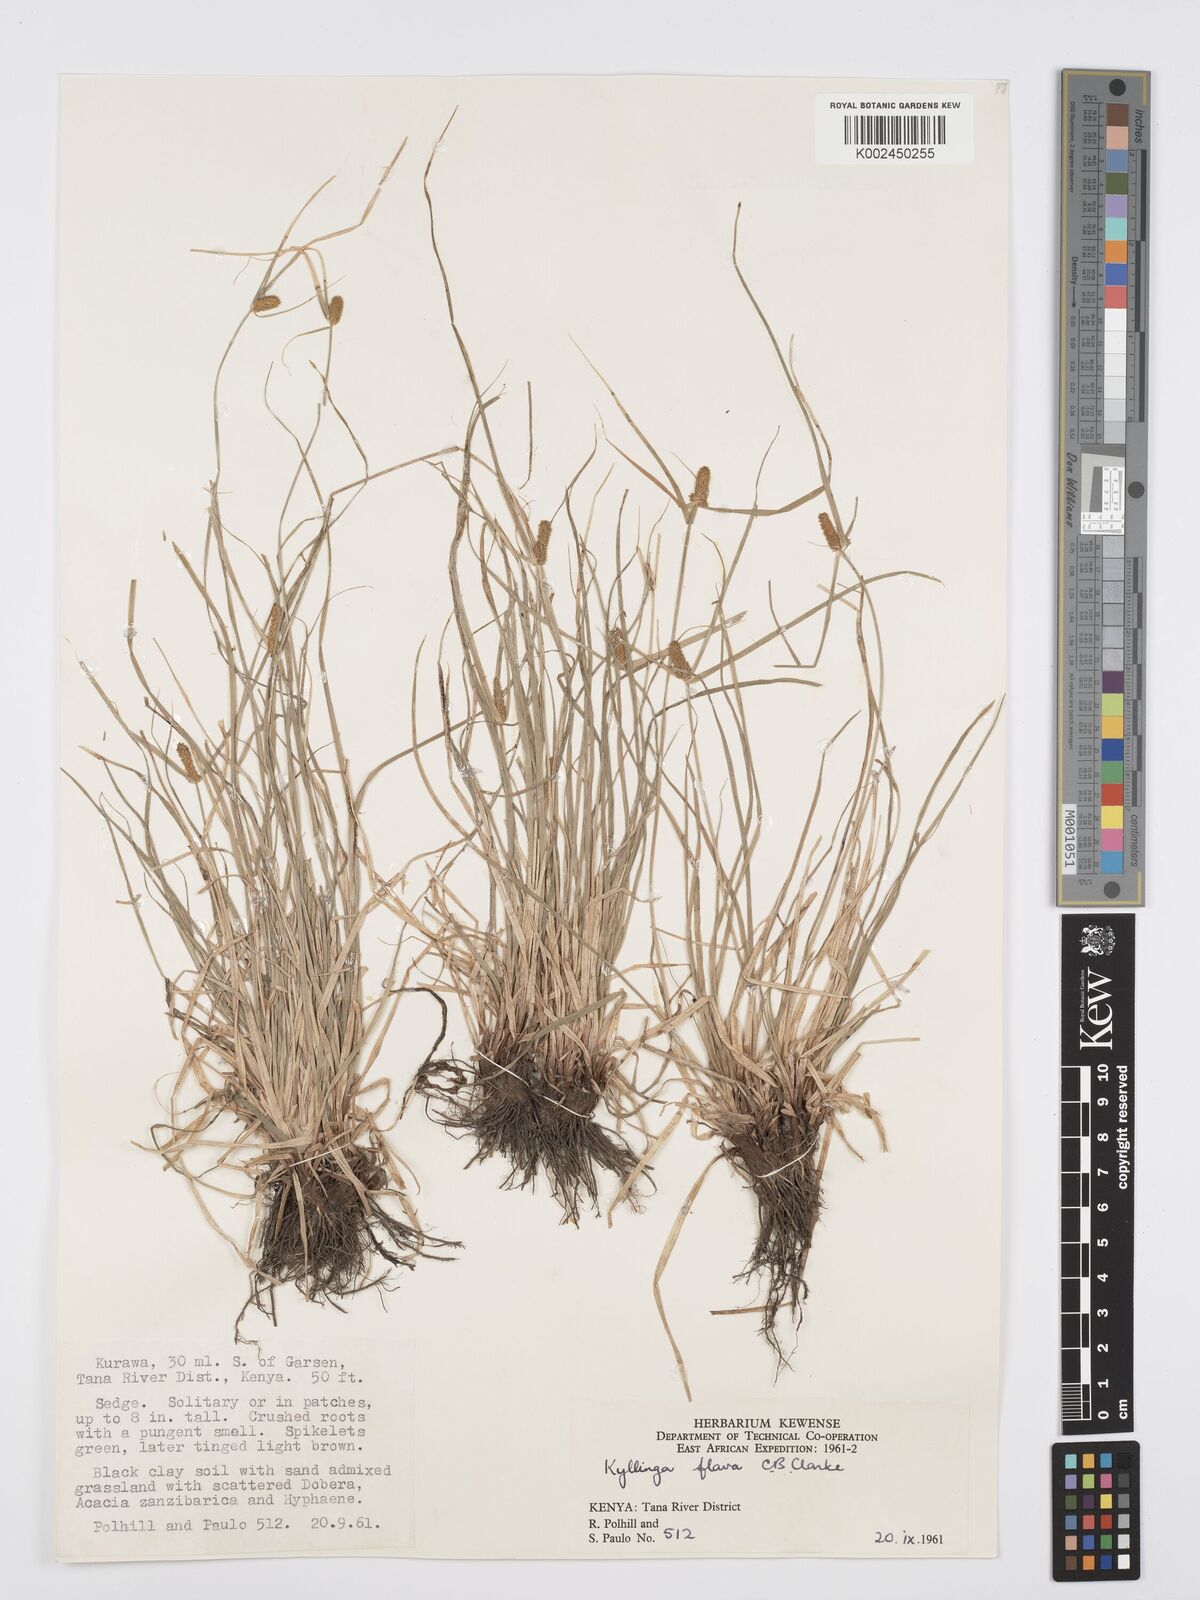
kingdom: Plantae
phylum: Tracheophyta
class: Liliopsida
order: Poales
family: Cyperaceae
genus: Cyperus
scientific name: Cyperus
